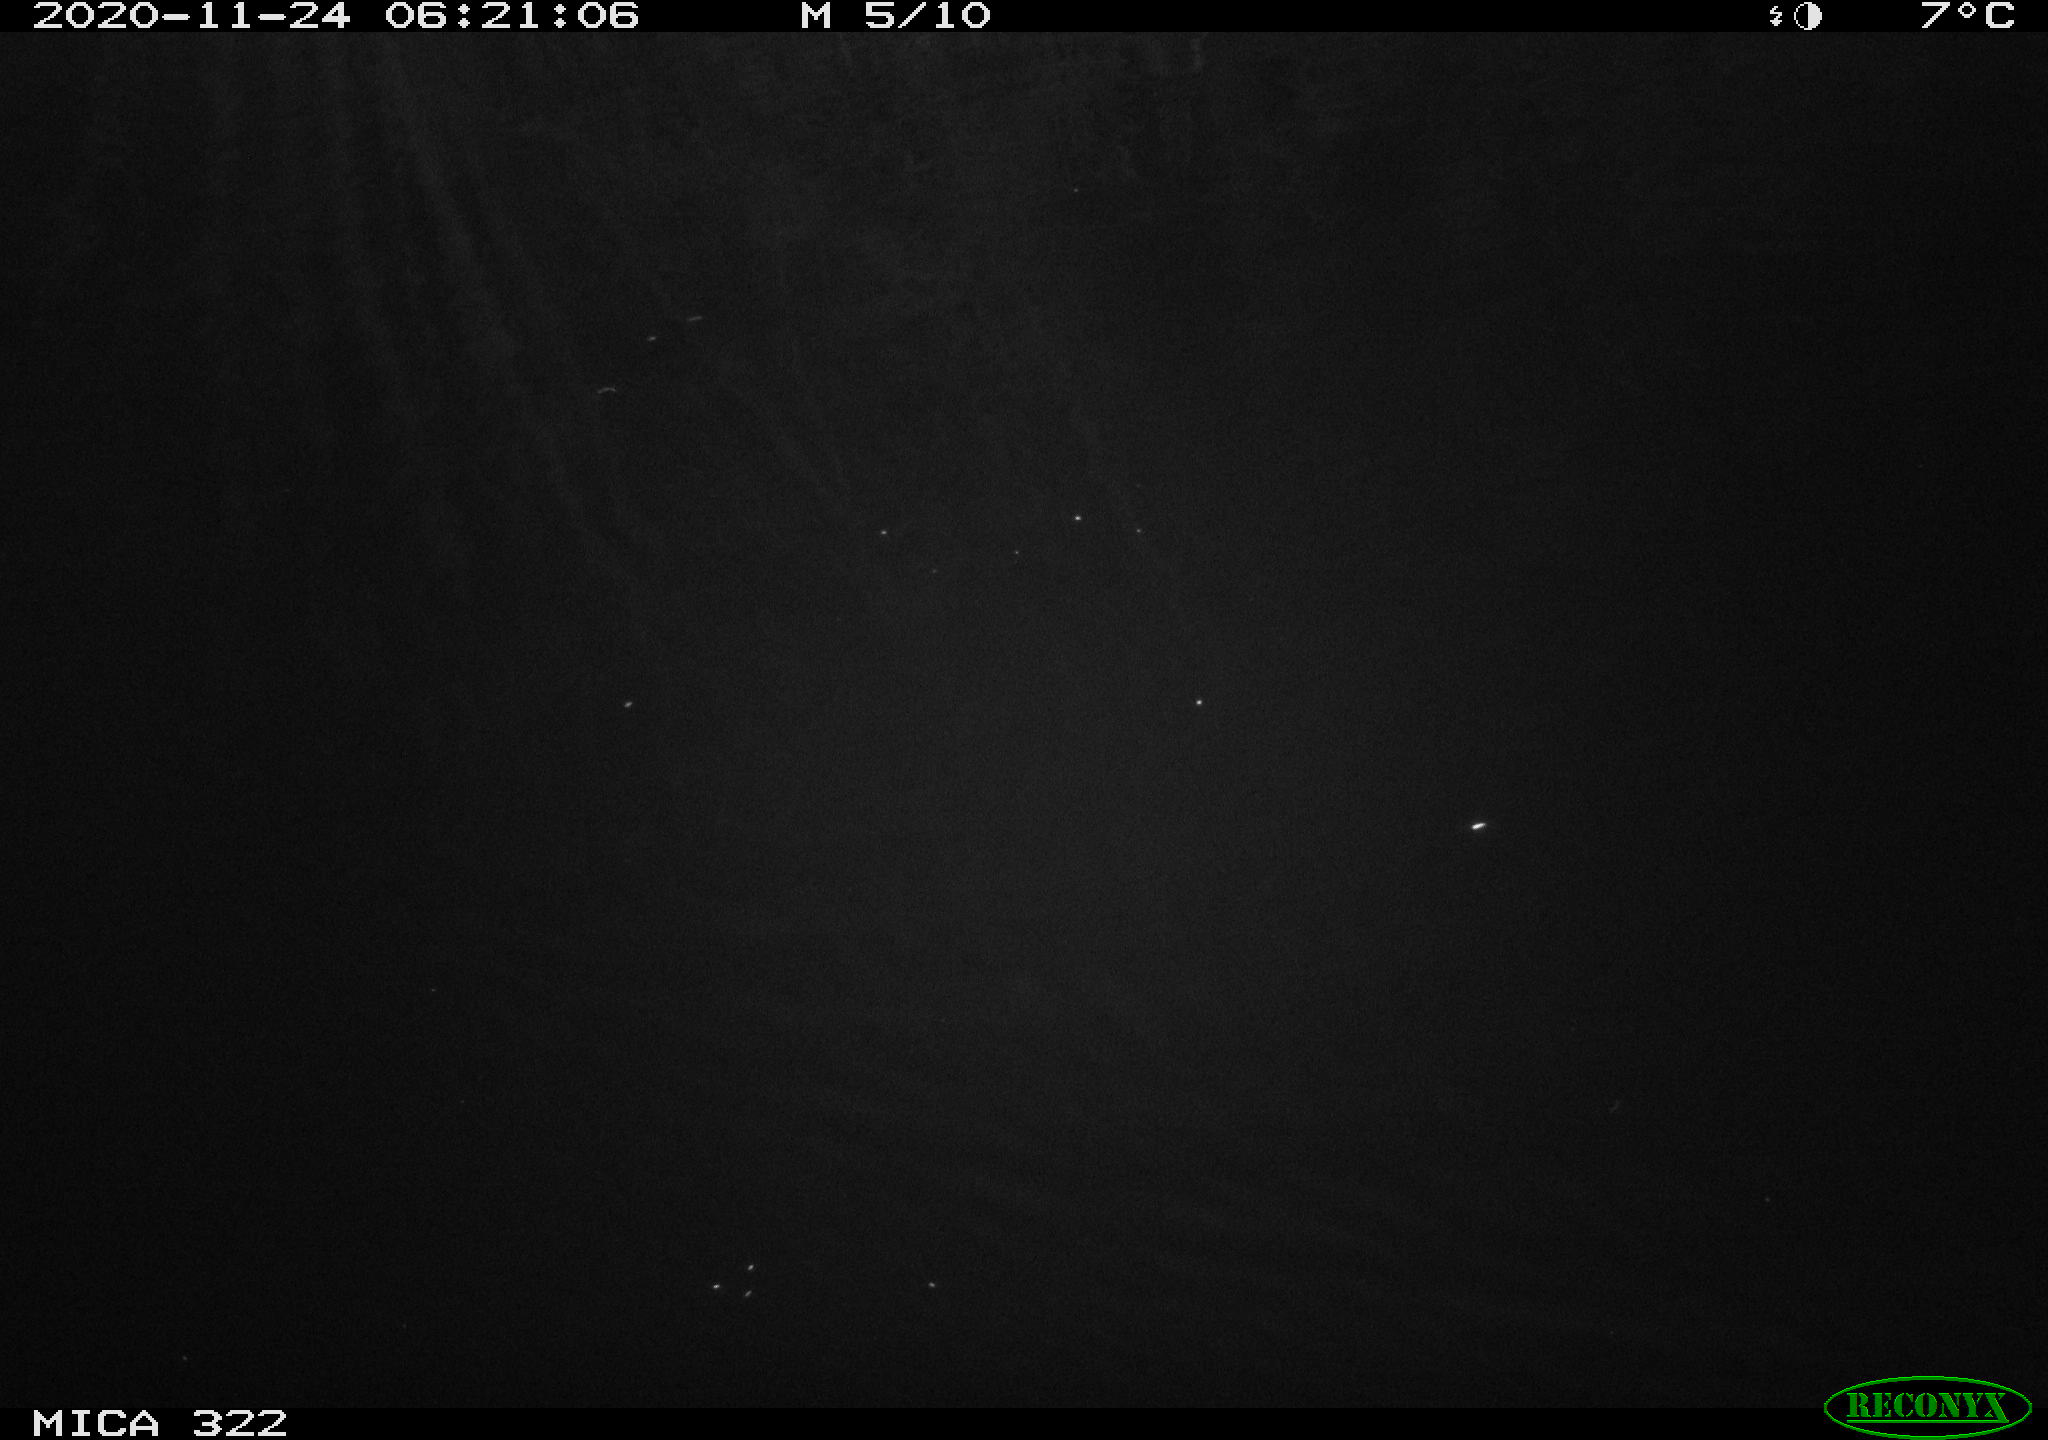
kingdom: Animalia
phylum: Chordata
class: Mammalia
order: Rodentia
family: Muridae
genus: Rattus
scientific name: Rattus norvegicus
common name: Brown rat
